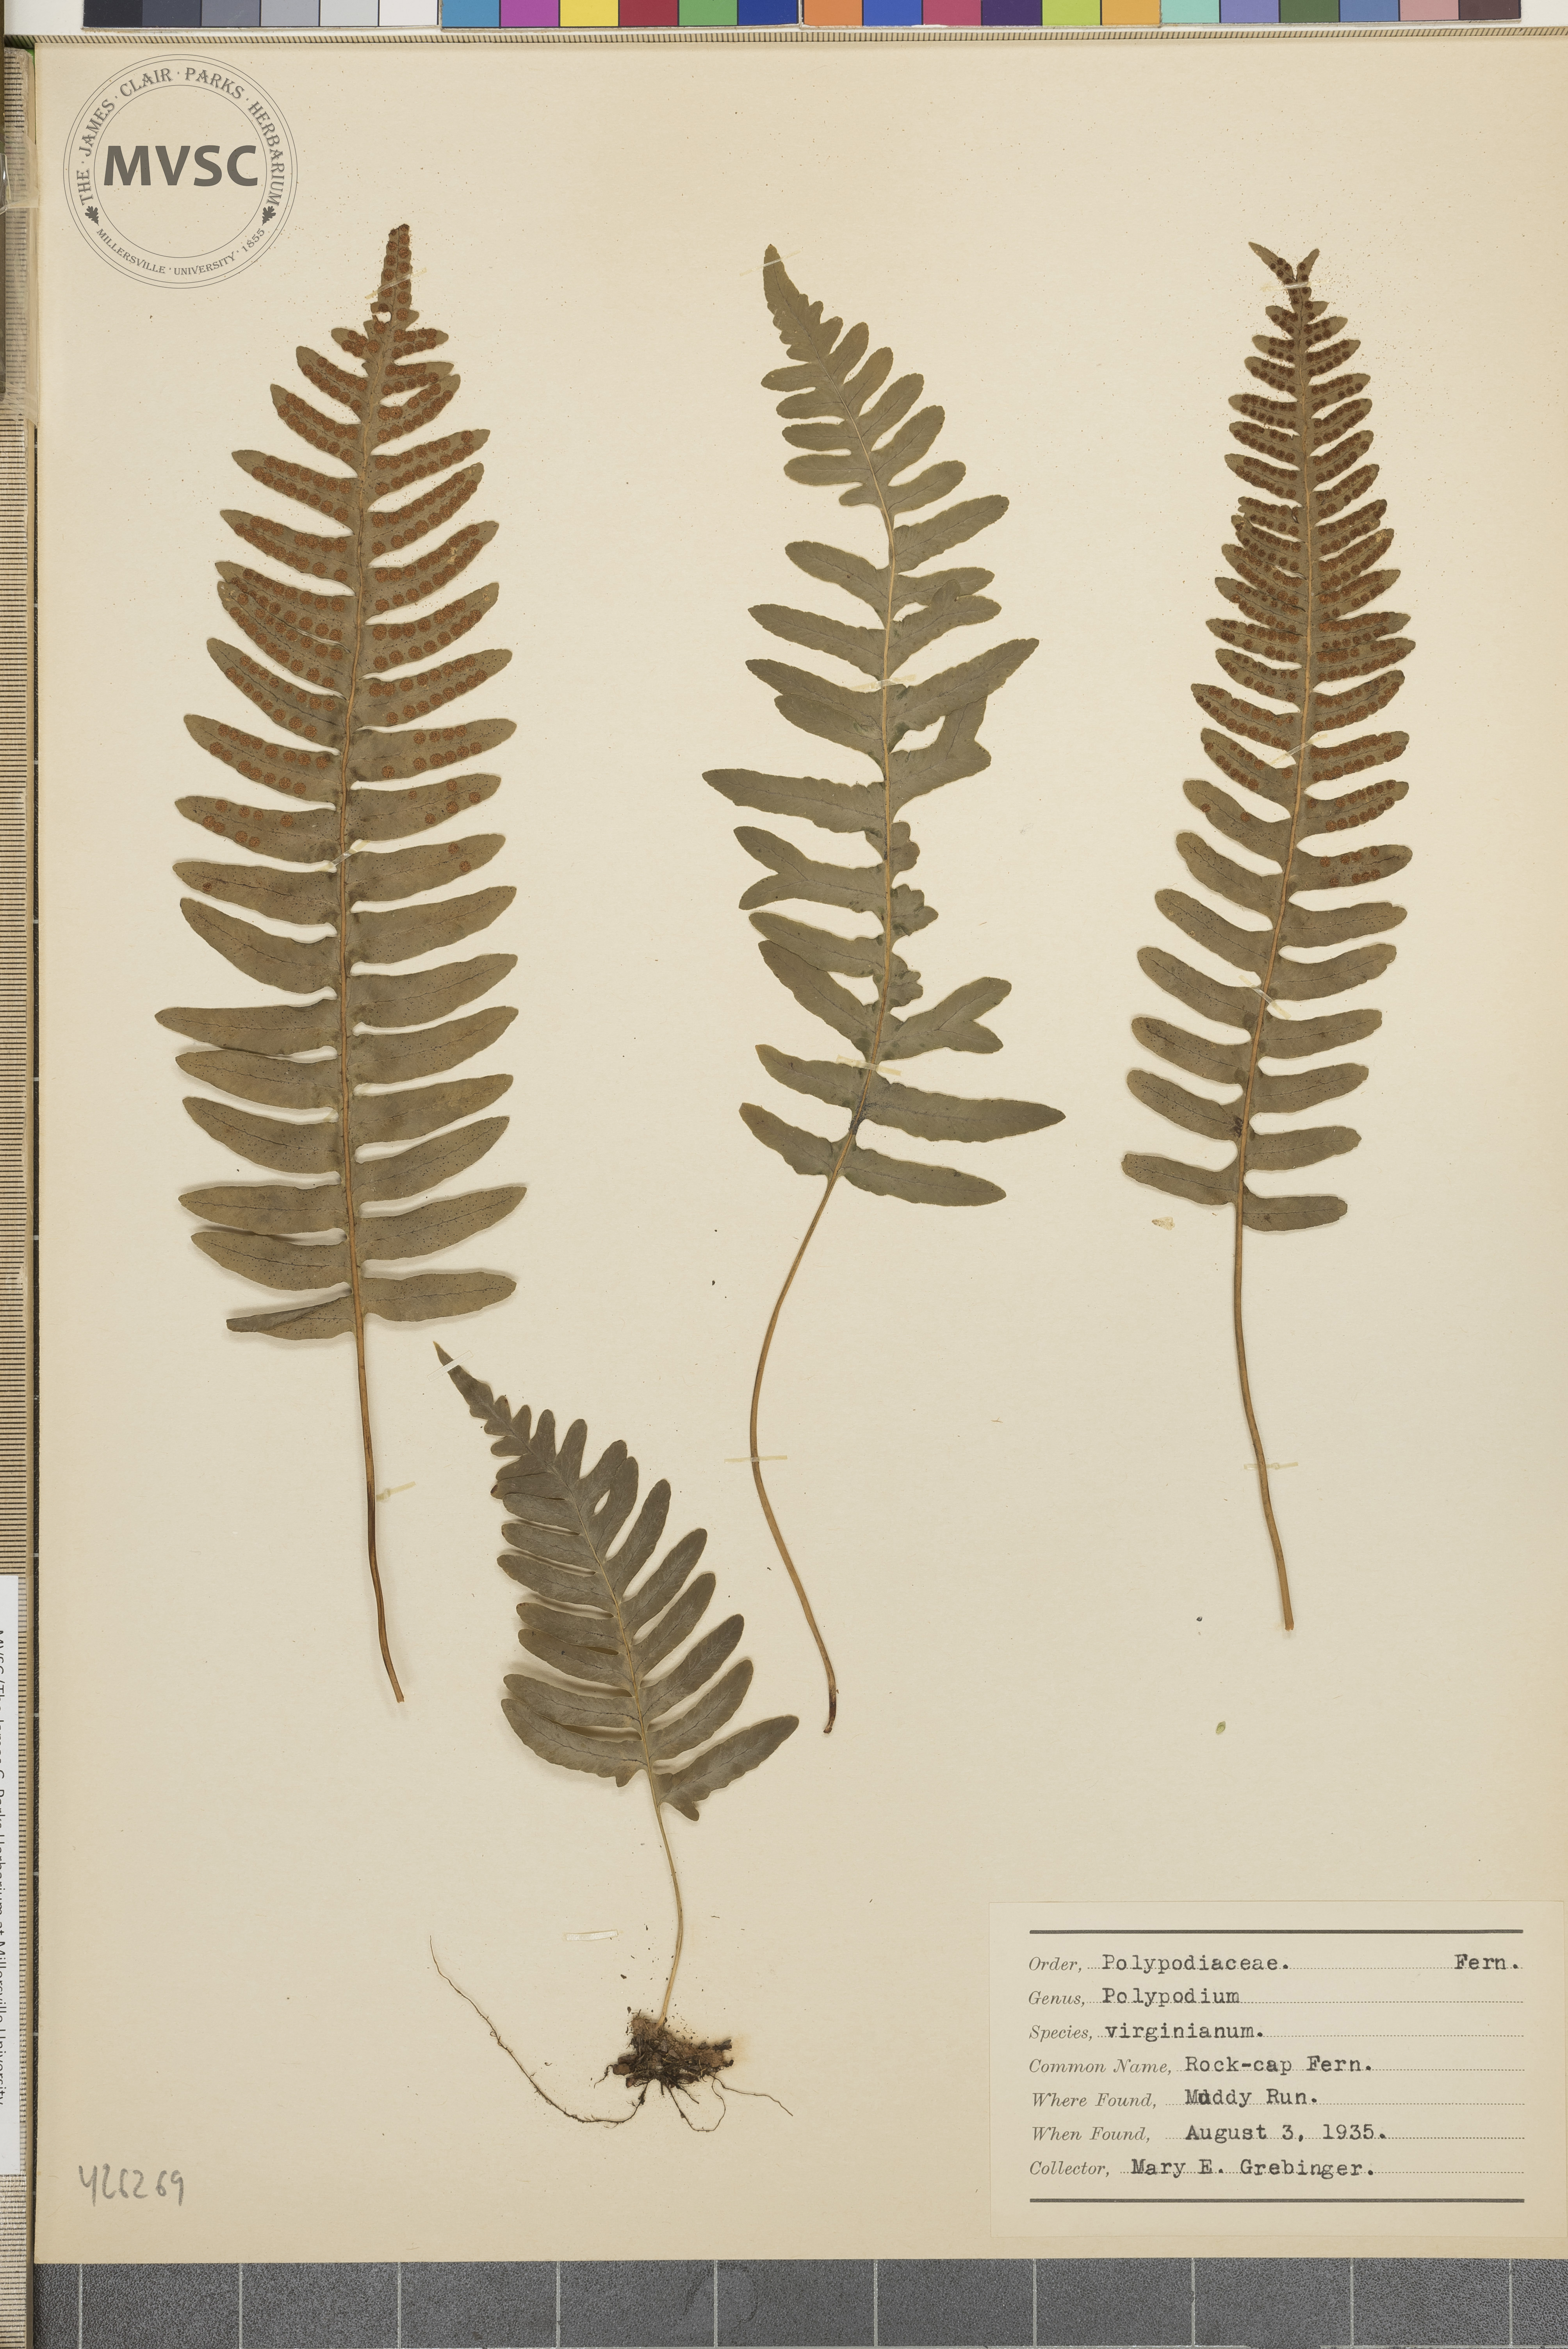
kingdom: Plantae
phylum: Tracheophyta
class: Polypodiopsida
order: Polypodiales
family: Polypodiaceae
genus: Polypodium
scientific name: Polypodium virginianum
